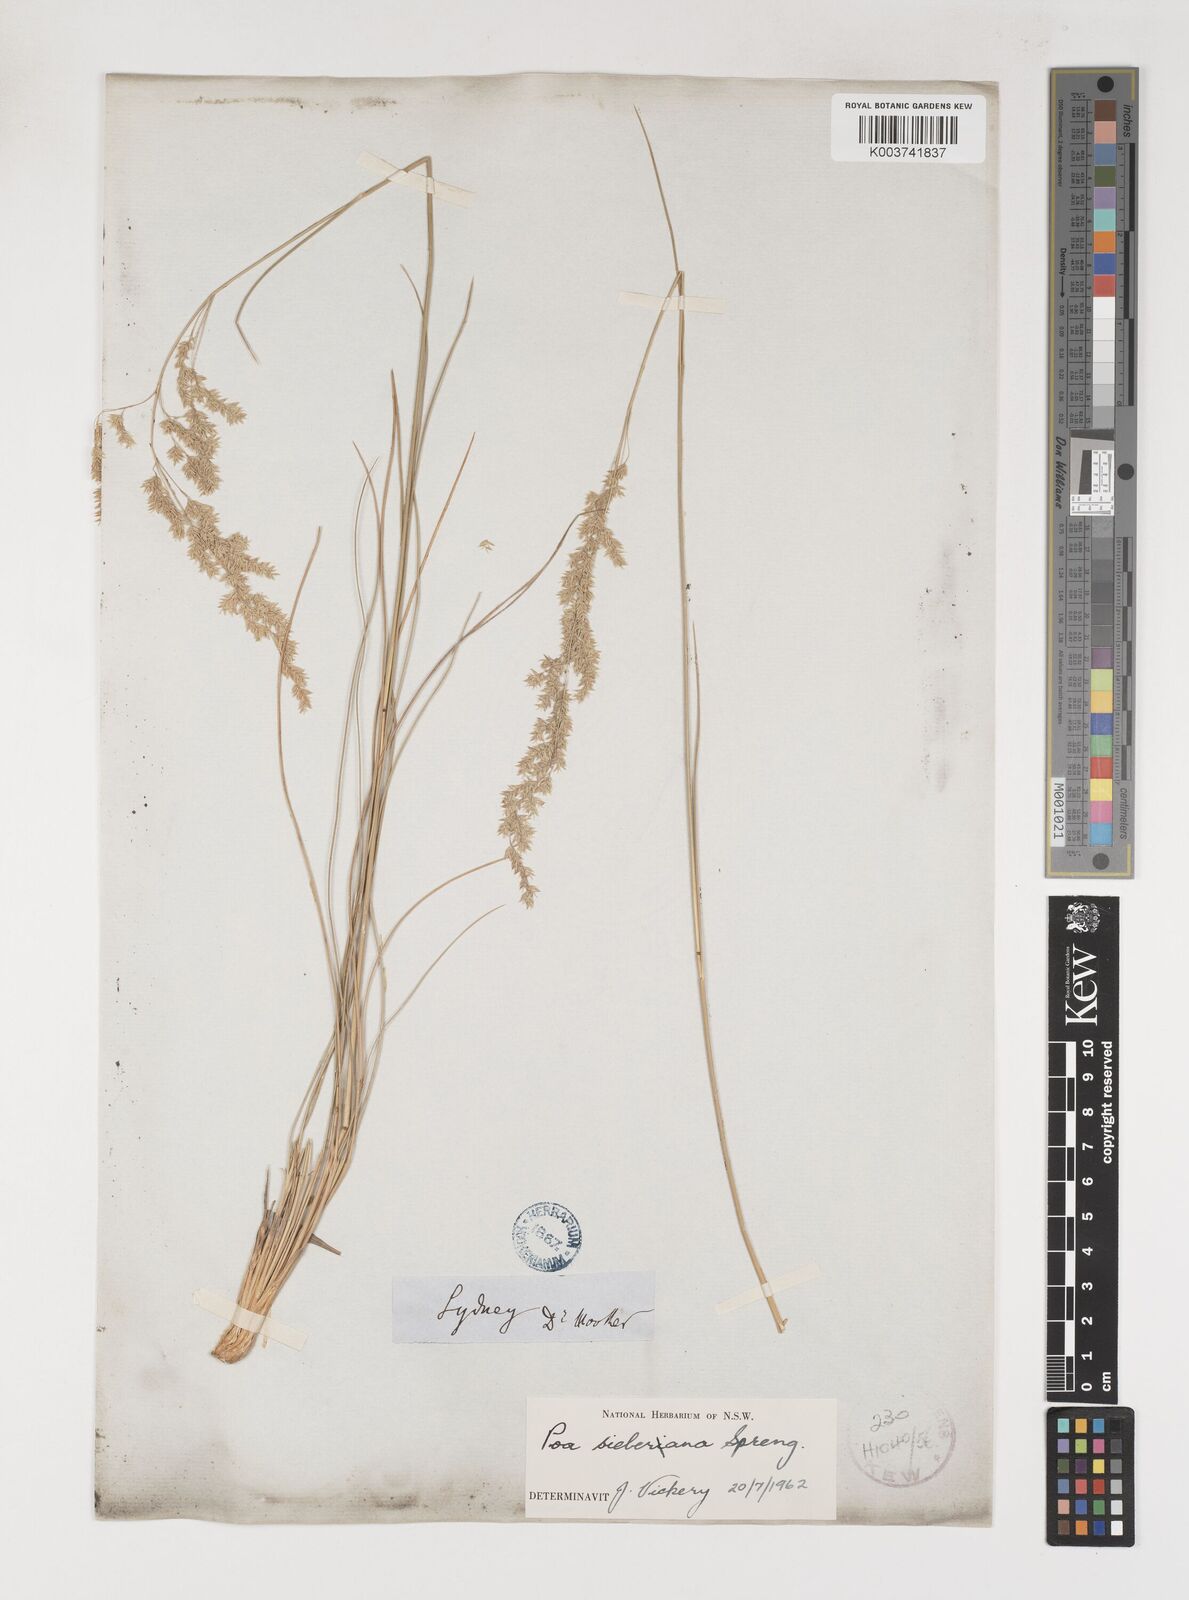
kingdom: Plantae
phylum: Tracheophyta
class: Liliopsida
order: Poales
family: Poaceae
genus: Poa
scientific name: Poa sieberiana
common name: Tussock poa
